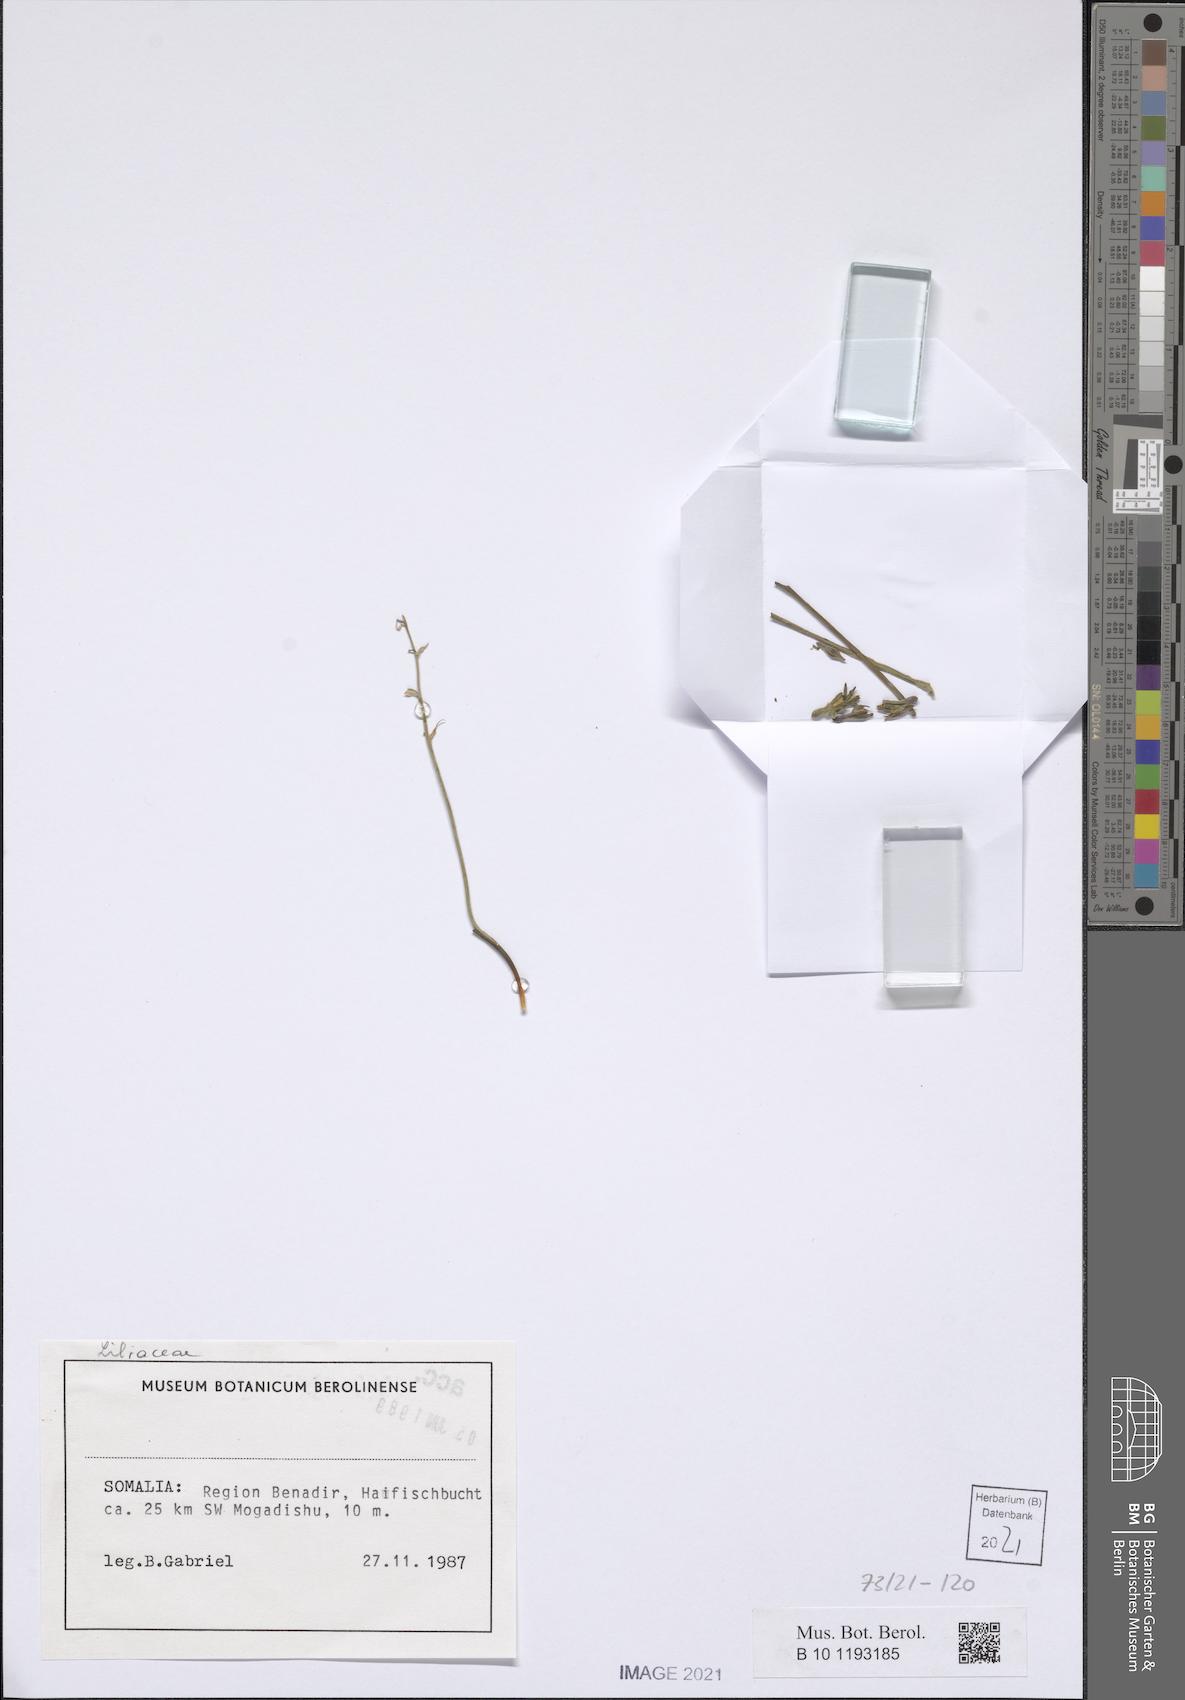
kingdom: Plantae
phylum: Tracheophyta
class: Liliopsida
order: Asparagales
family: Asparagaceae
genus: Dipcadi
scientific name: Dipcadi viride
